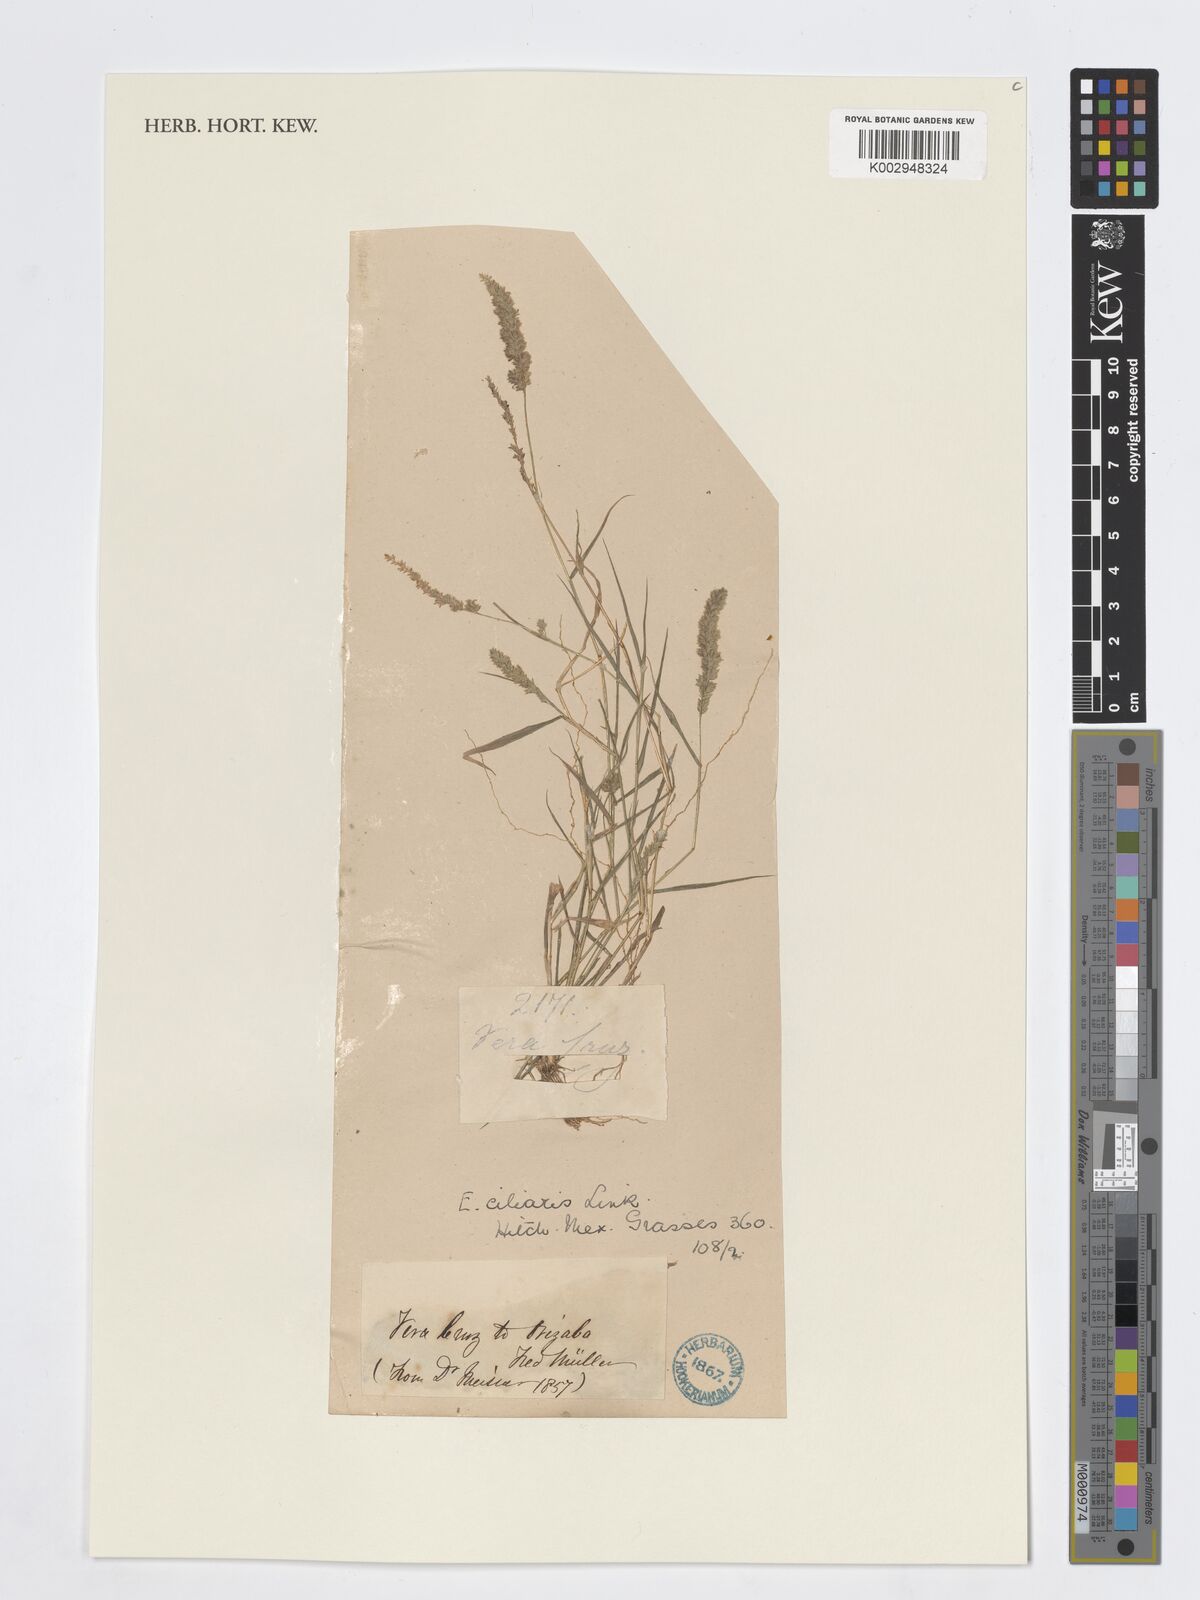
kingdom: Plantae
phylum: Tracheophyta
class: Liliopsida
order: Poales
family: Poaceae
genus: Eragrostis
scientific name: Eragrostis ciliaris
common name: Gophertail lovegrass
